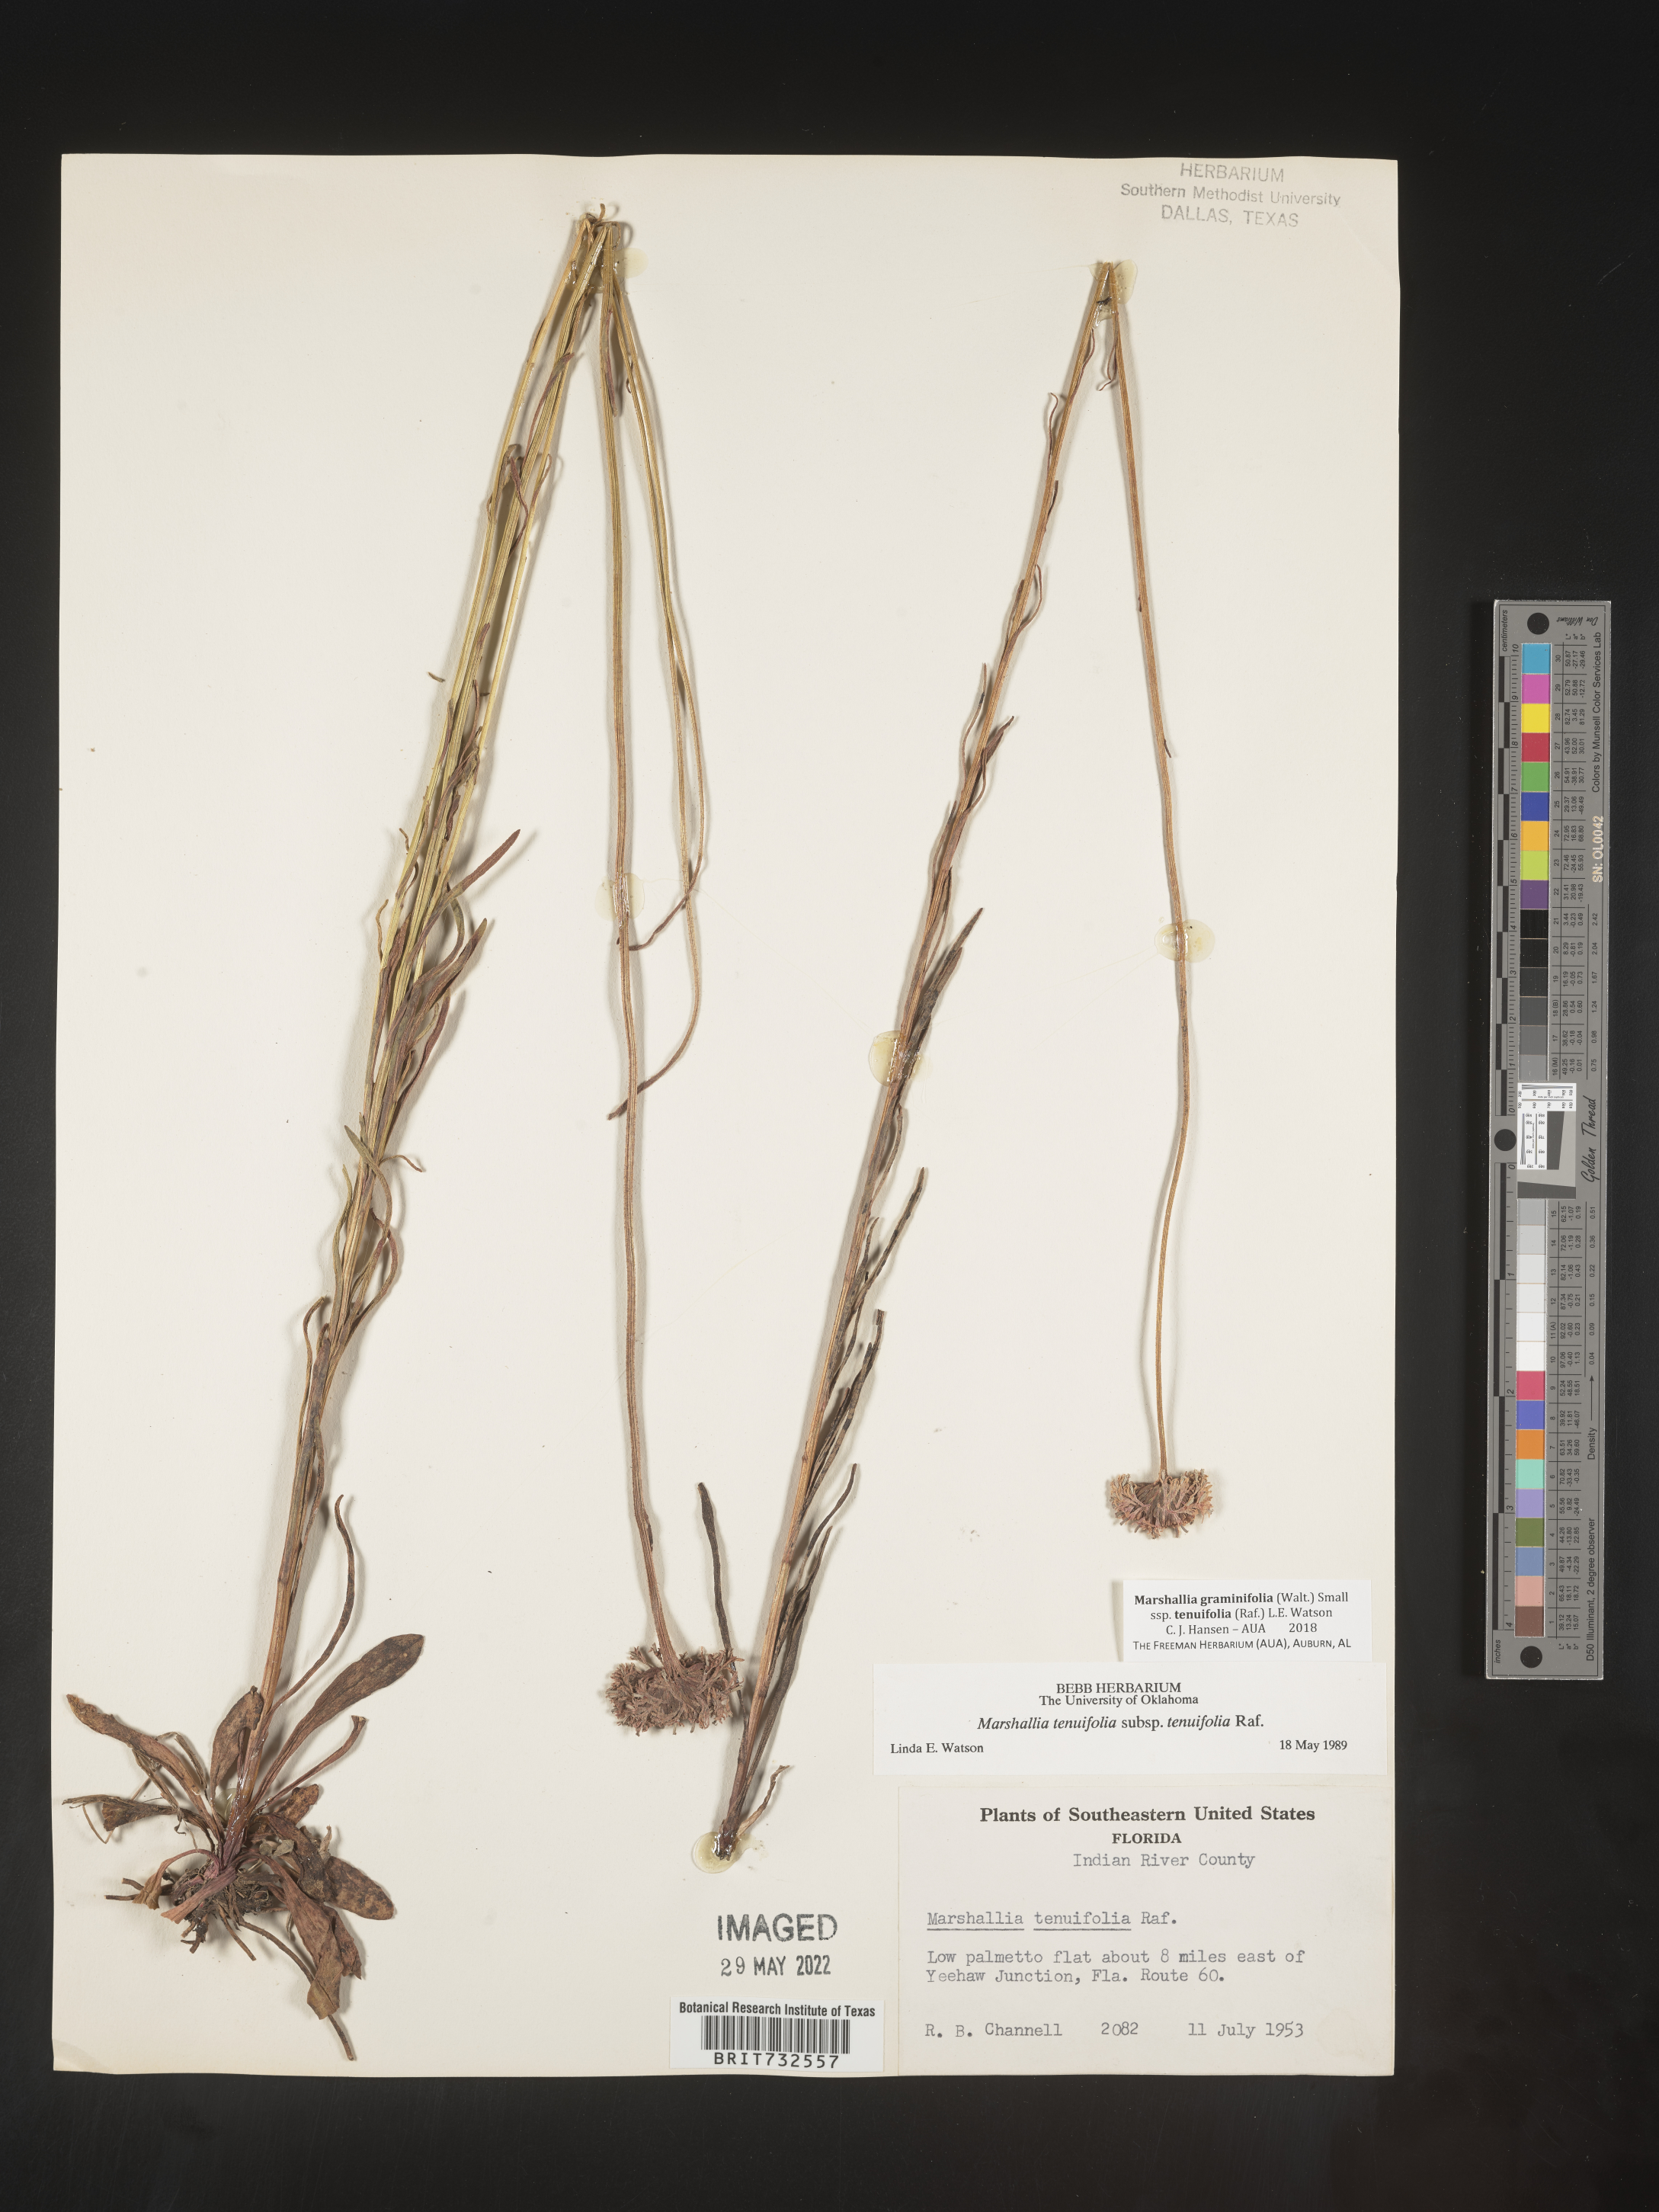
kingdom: Plantae
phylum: Tracheophyta
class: Magnoliopsida
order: Asterales
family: Asteraceae
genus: Marshallia
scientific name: Marshallia graminifolia
